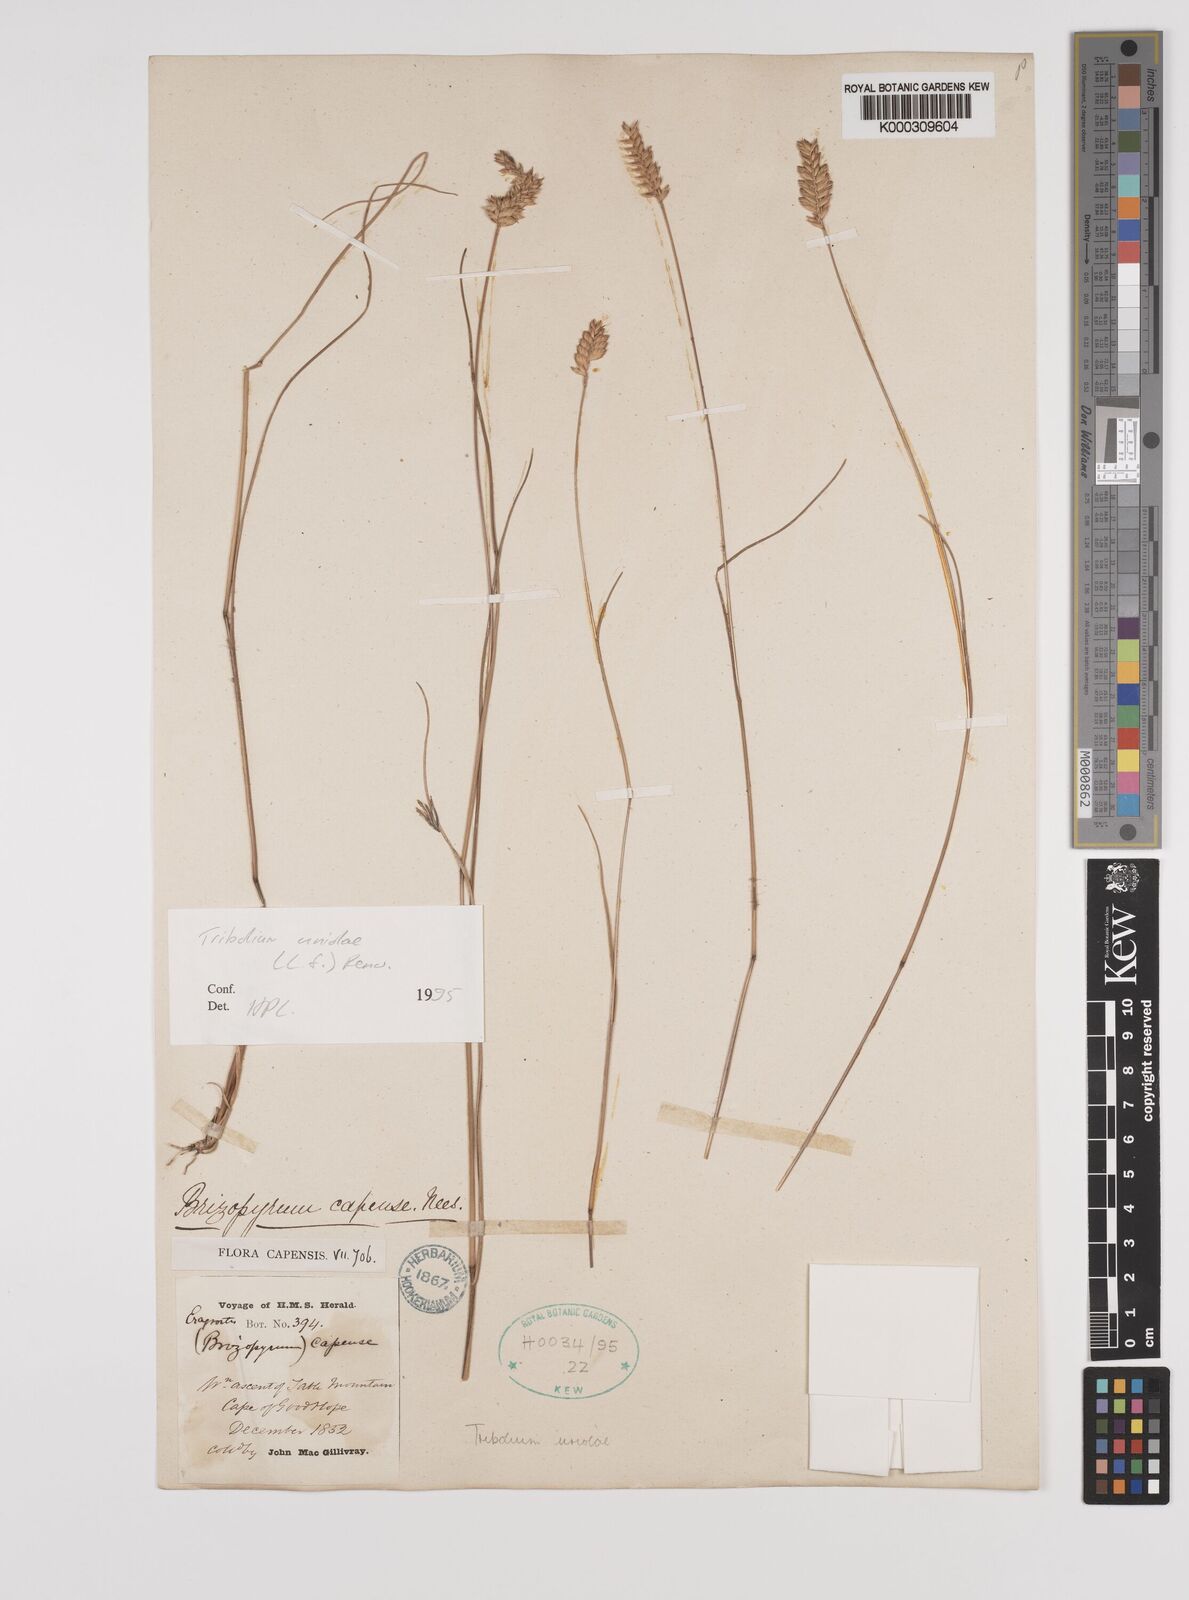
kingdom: Plantae
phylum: Tracheophyta
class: Liliopsida
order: Poales
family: Poaceae
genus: Tribolium
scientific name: Tribolium uniolae
